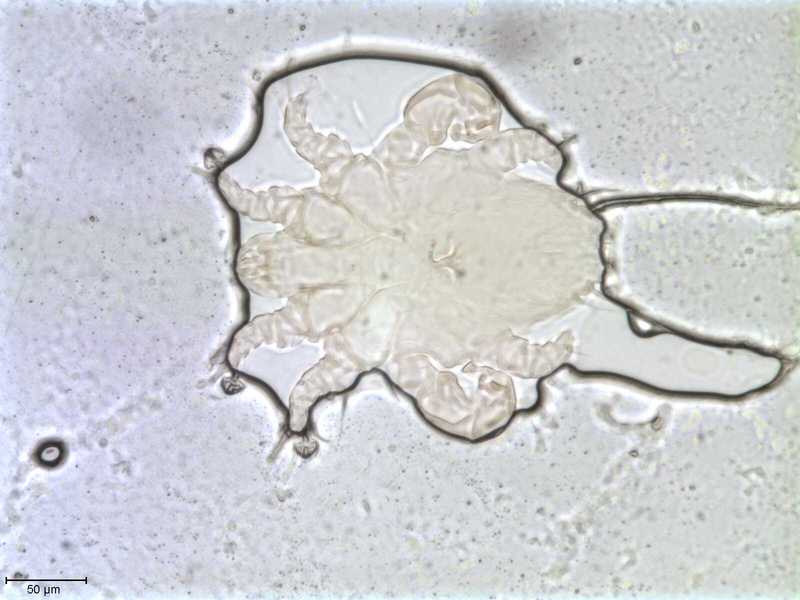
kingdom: Animalia
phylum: Arthropoda
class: Arachnida
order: Sarcoptiformes
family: Myocoptidae
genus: Gliricoptes
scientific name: Gliricoptes
